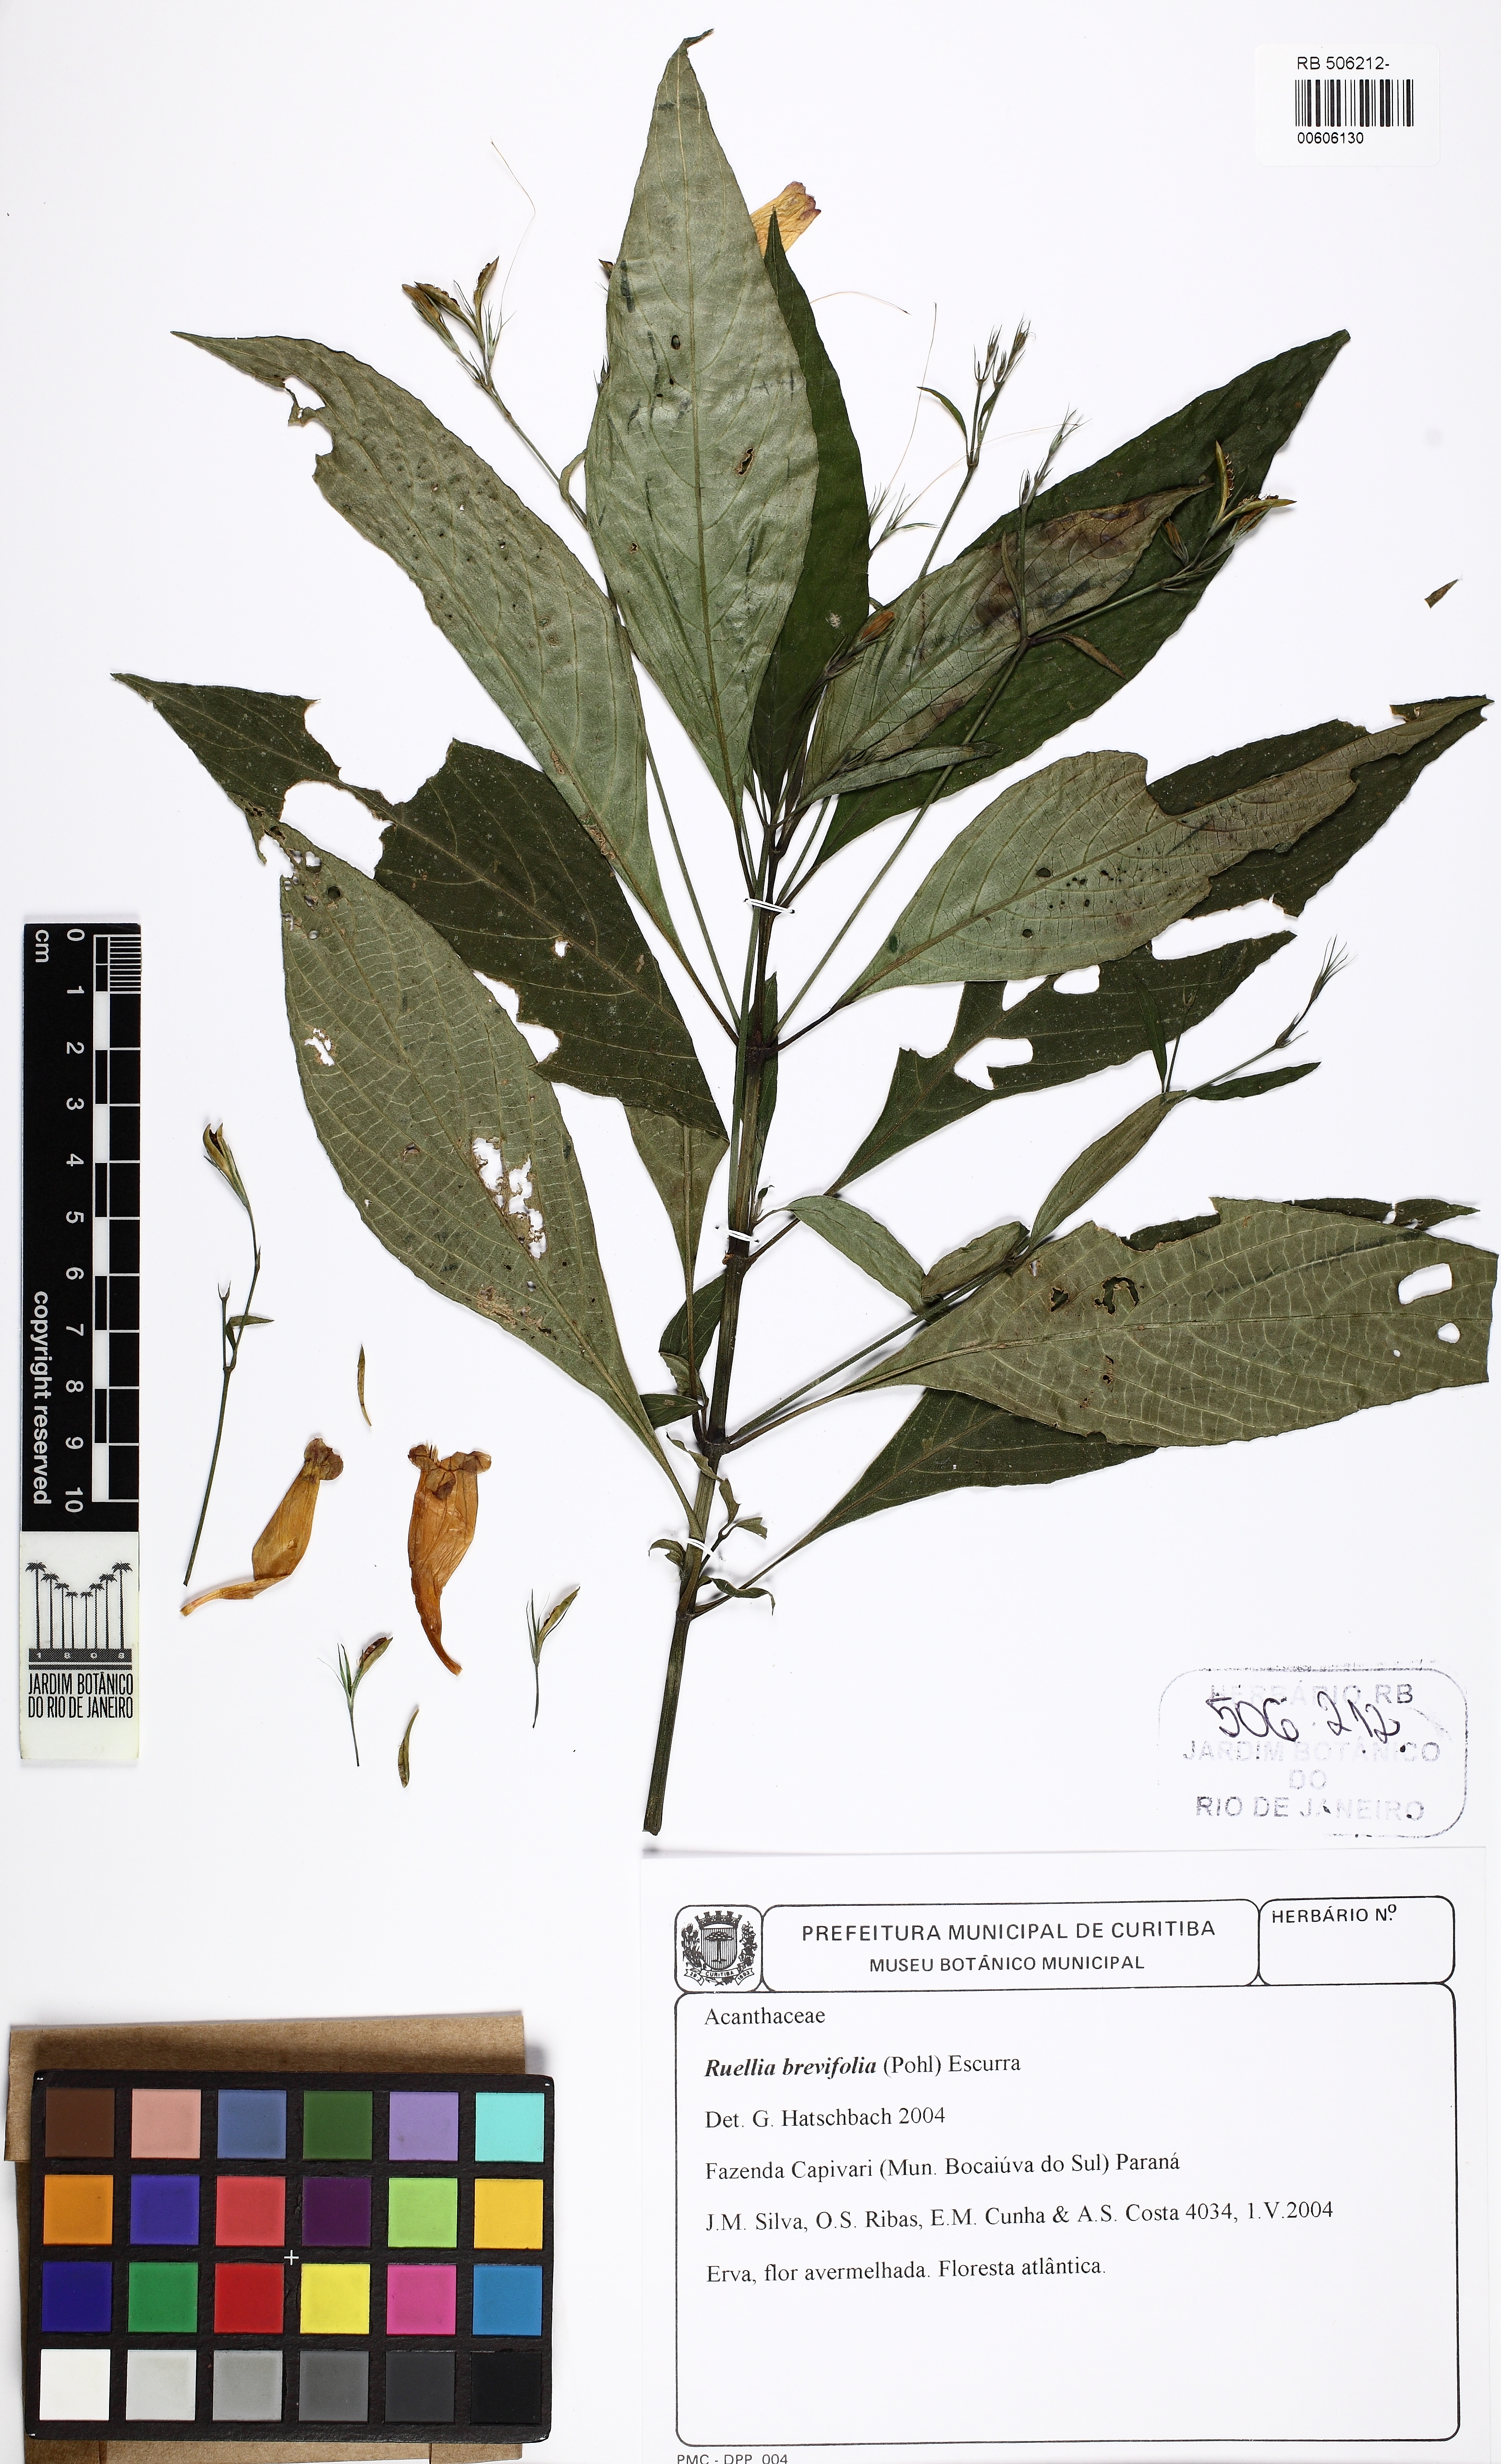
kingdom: Plantae
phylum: Tracheophyta
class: Magnoliopsida
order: Lamiales
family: Acanthaceae
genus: Ruellia
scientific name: Ruellia brevifolia
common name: Tropical wild petunia
